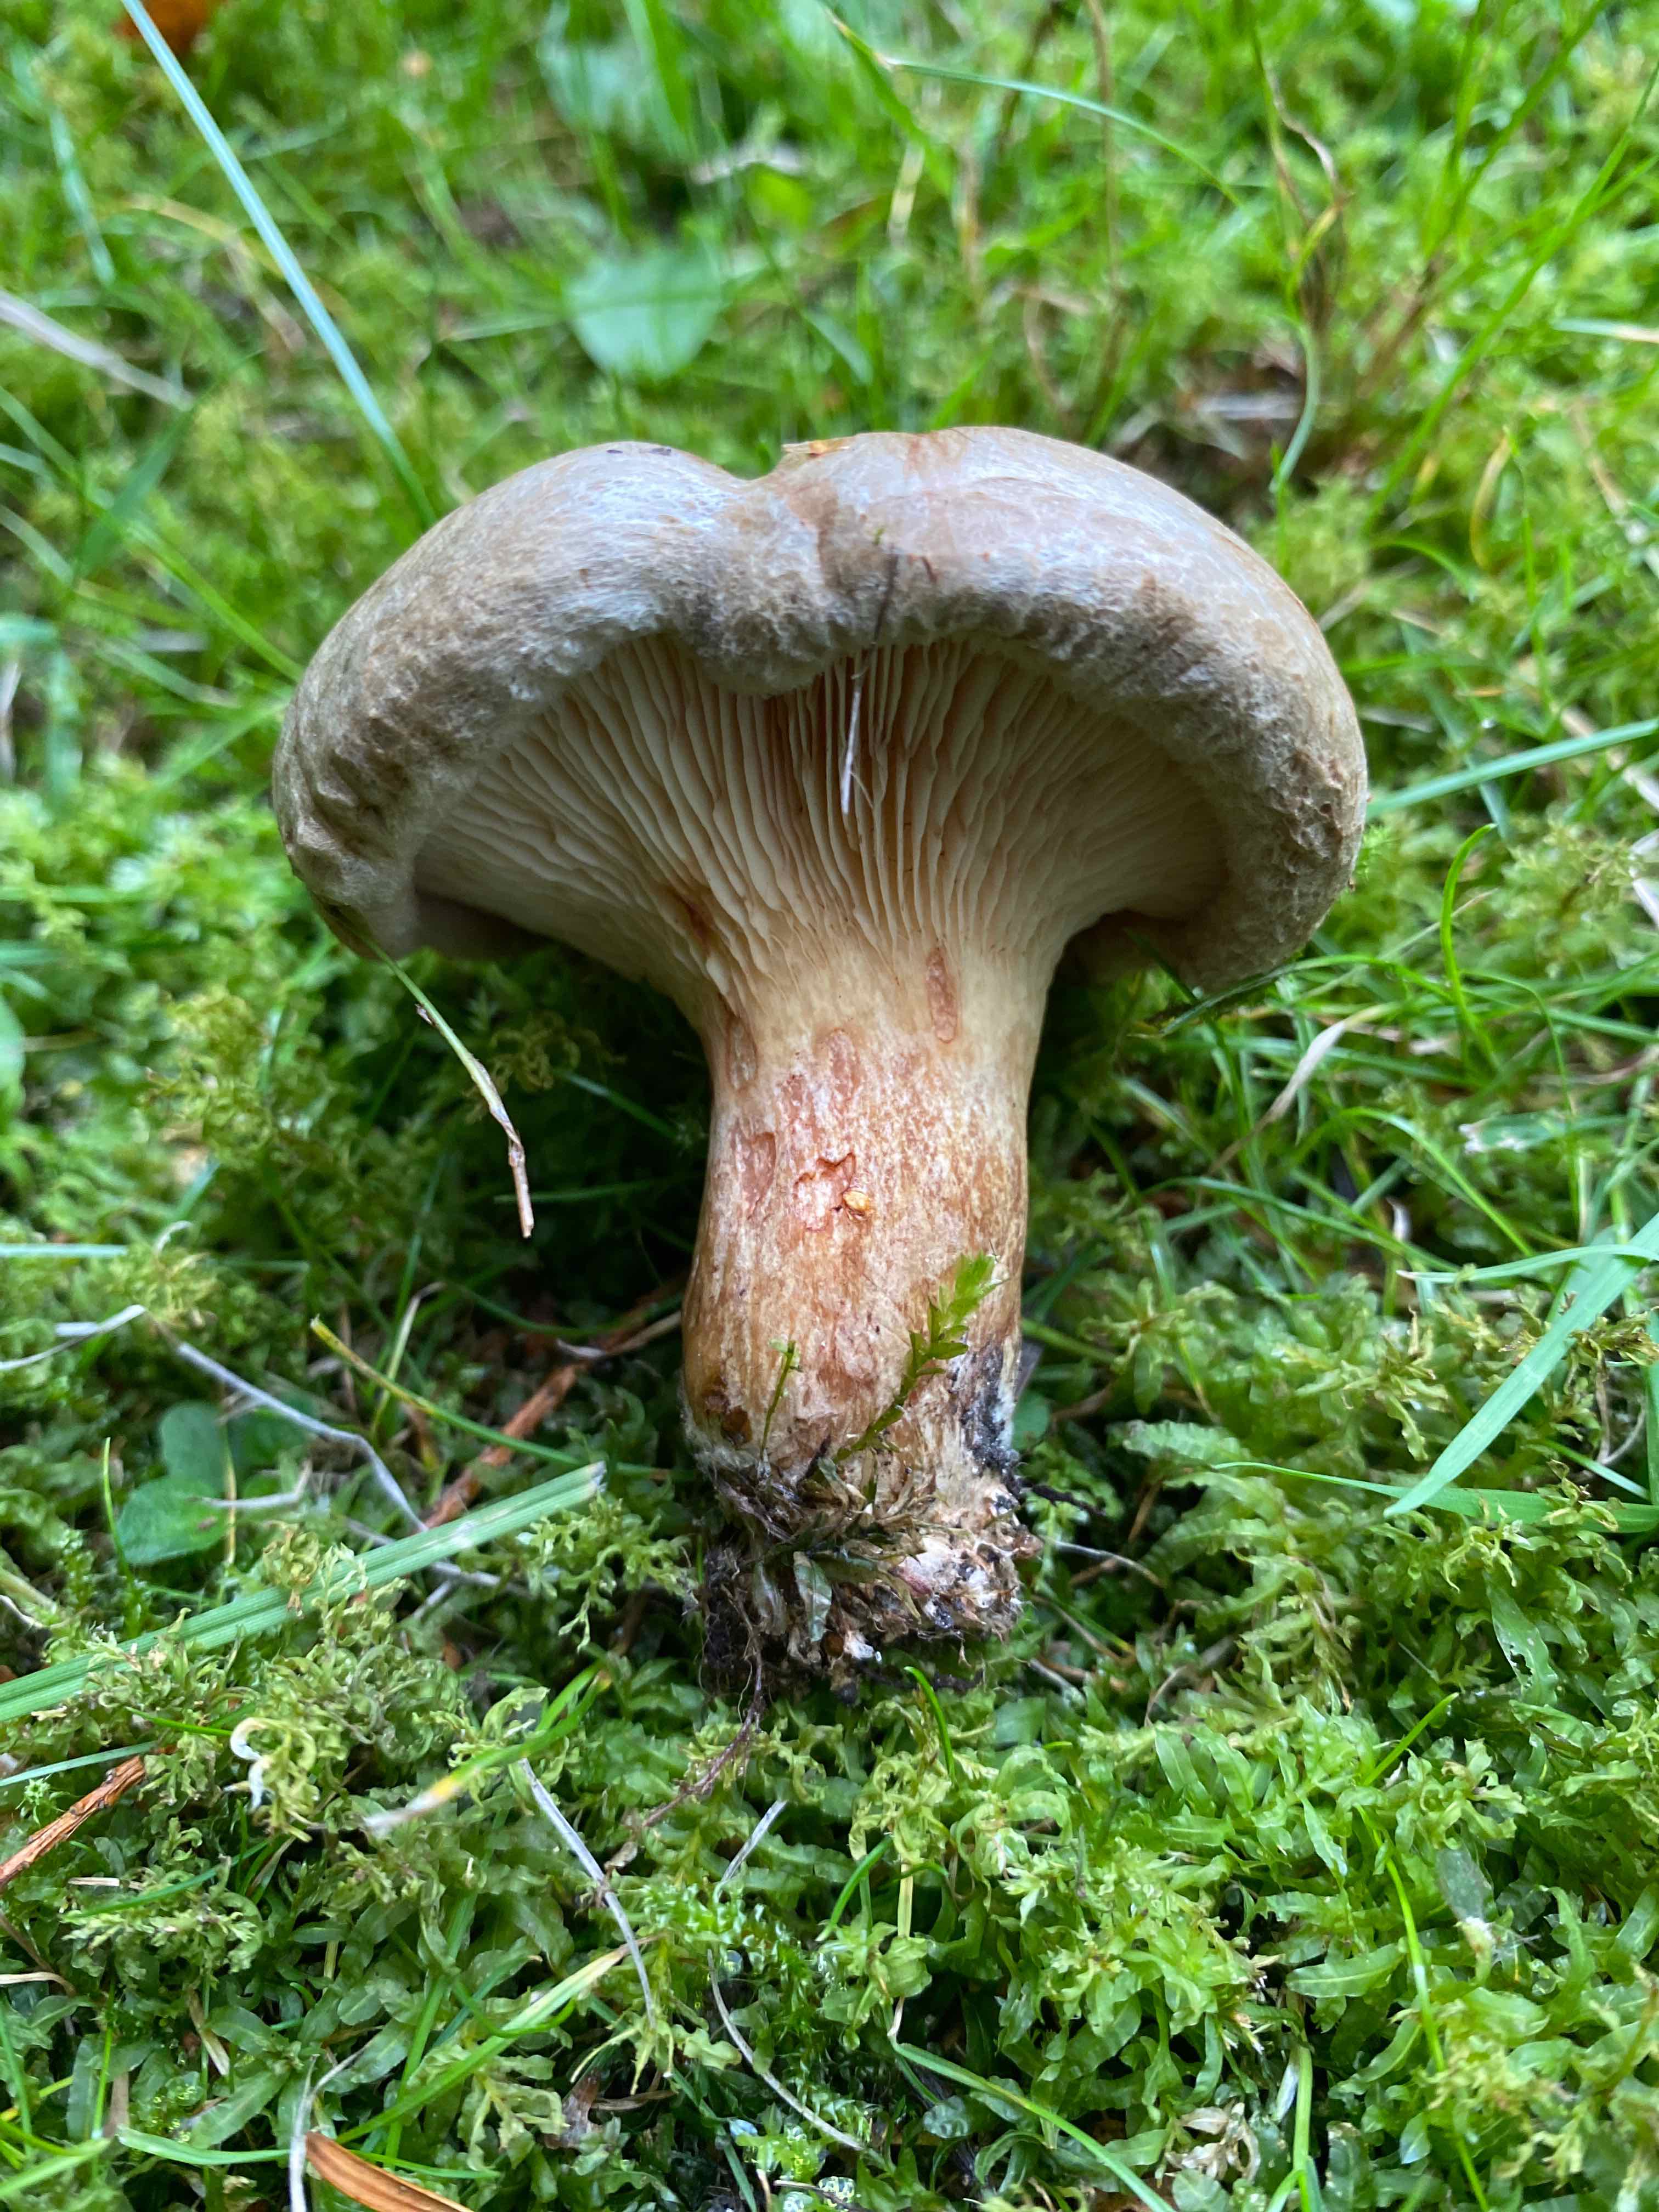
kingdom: Fungi
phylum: Basidiomycota
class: Agaricomycetes
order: Boletales
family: Paxillaceae
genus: Paxillus
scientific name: Paxillus
